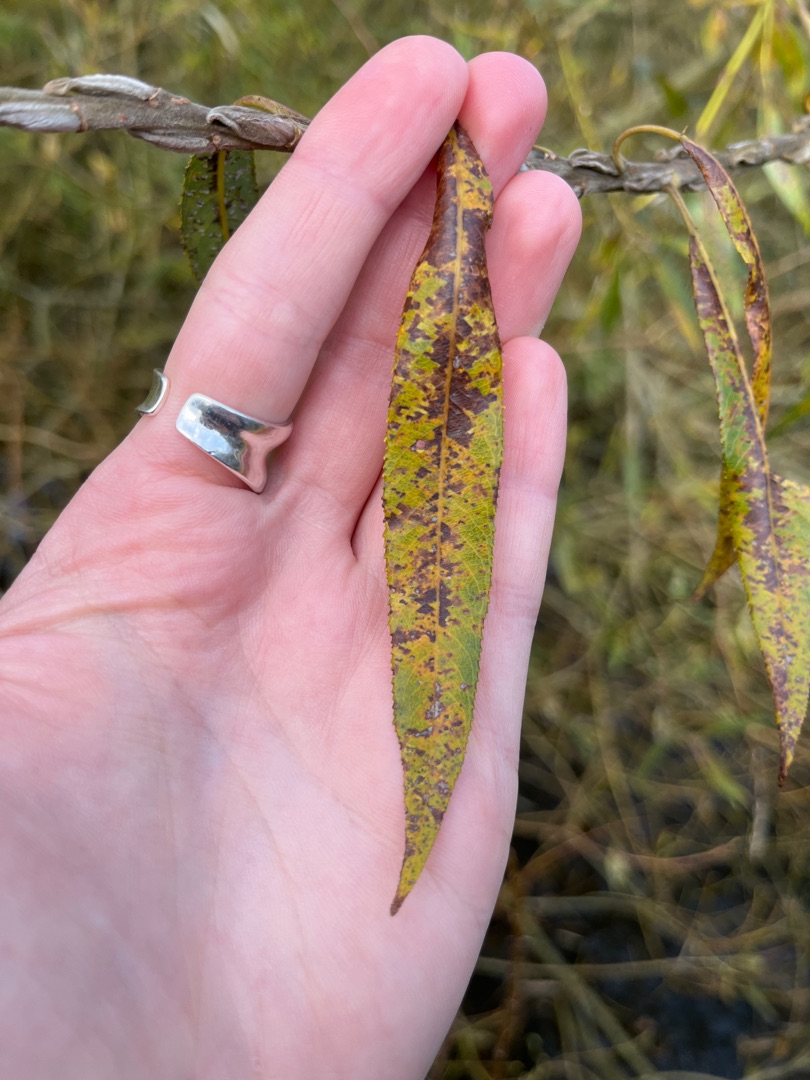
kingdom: Plantae
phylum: Tracheophyta
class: Magnoliopsida
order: Malpighiales
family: Salicaceae
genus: Salix
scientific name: Salix viminalis
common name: Bånd-pil
